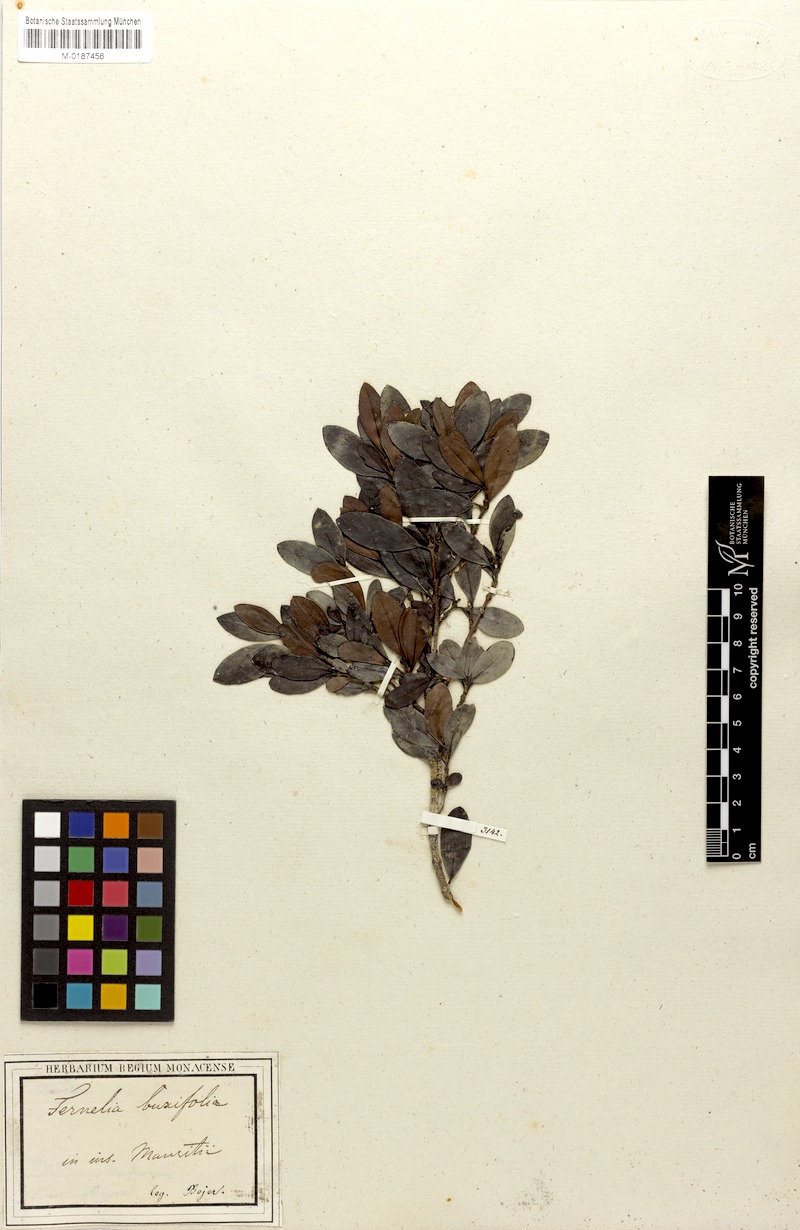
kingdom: Plantae
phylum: Tracheophyta
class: Magnoliopsida
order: Gentianales
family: Rubiaceae
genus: Fernelia
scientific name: Fernelia buxifolia
